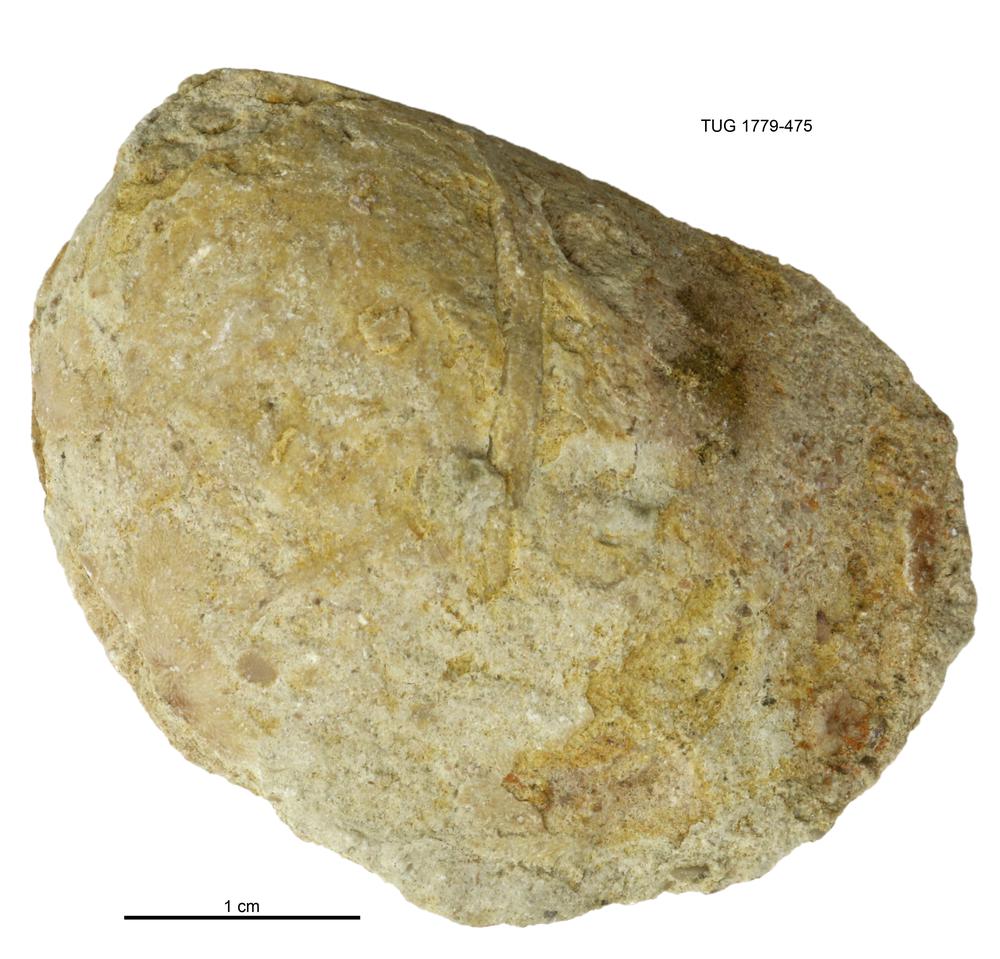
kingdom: Animalia
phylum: Mollusca
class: Bivalvia
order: Modiomorphida
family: Modiomorphidae
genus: Modiolopsis
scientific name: Modiolopsis
